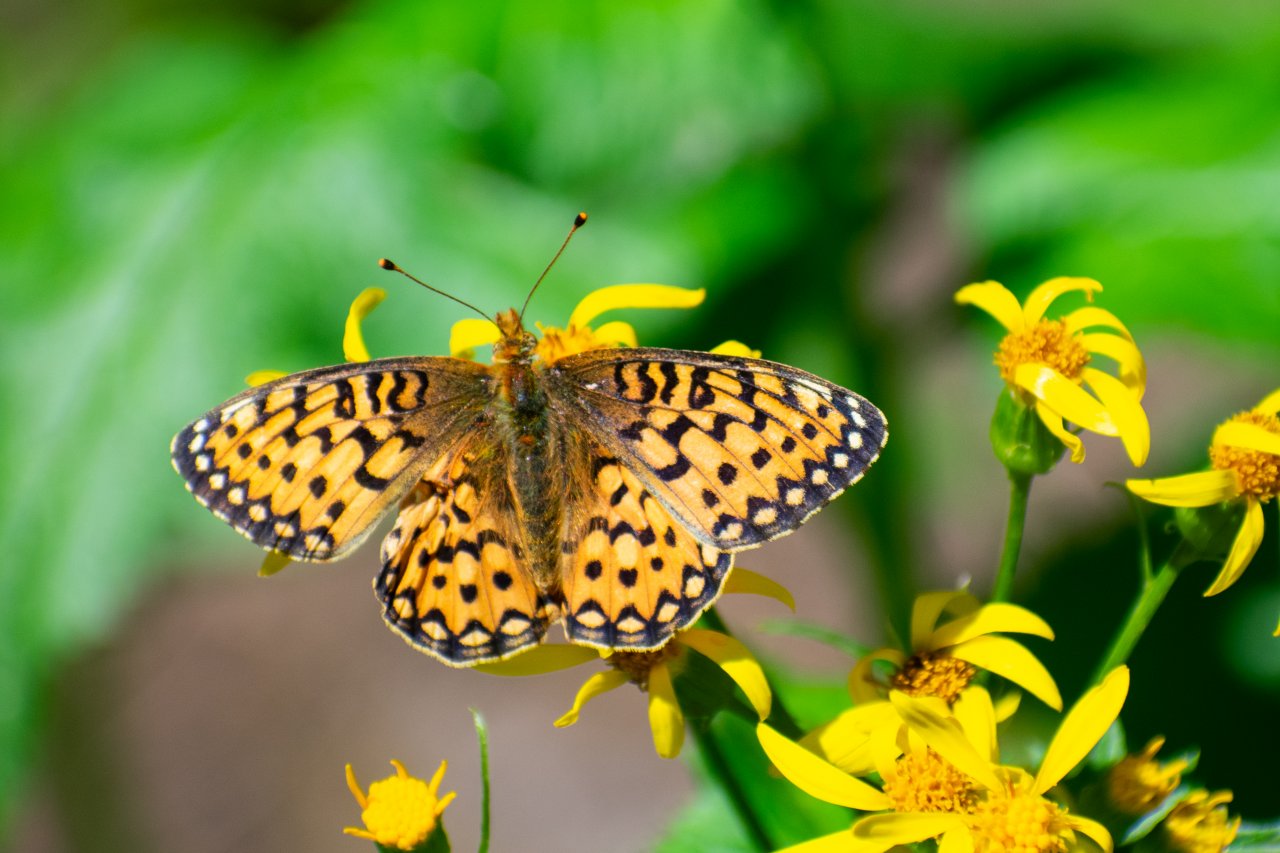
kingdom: Animalia
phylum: Arthropoda
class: Insecta
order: Lepidoptera
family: Nymphalidae
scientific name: Nymphalidae
